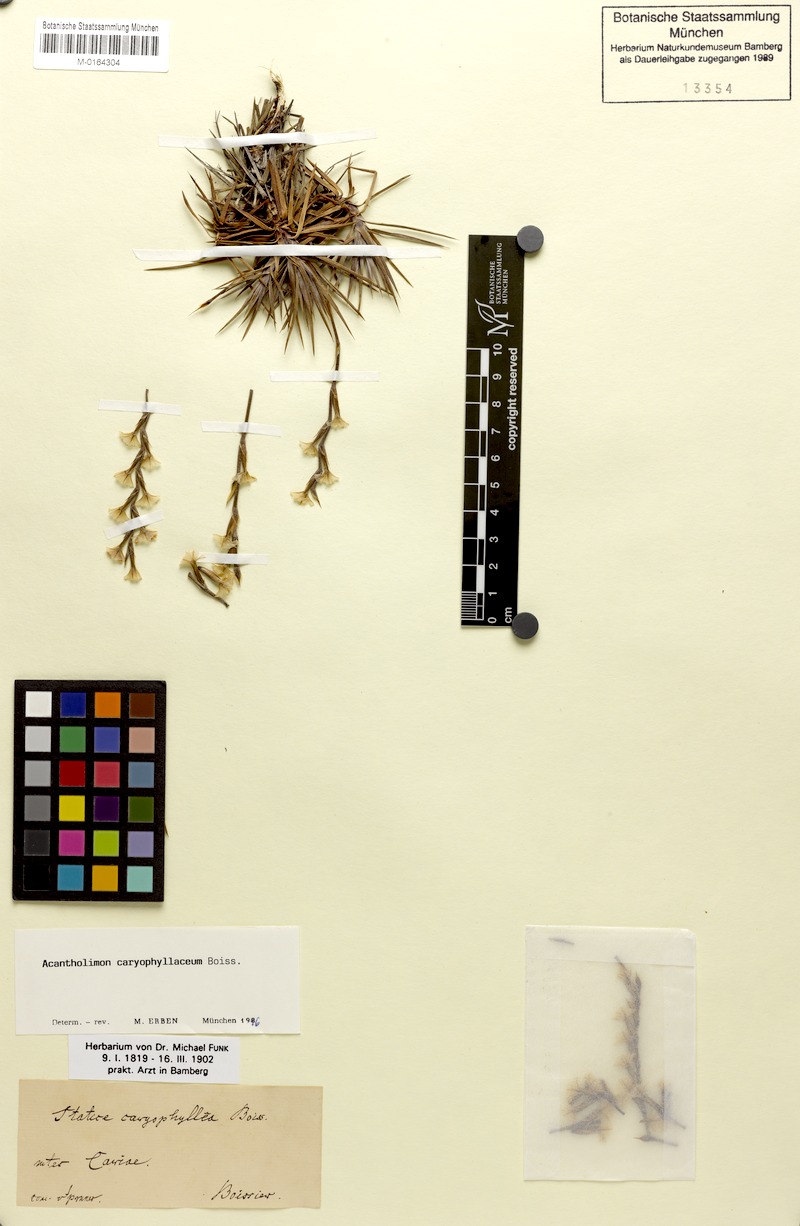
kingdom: Plantae
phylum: Tracheophyta
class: Magnoliopsida
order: Caryophyllales
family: Plumbaginaceae
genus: Acantholimon
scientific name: Acantholimon caryophyllaceum
